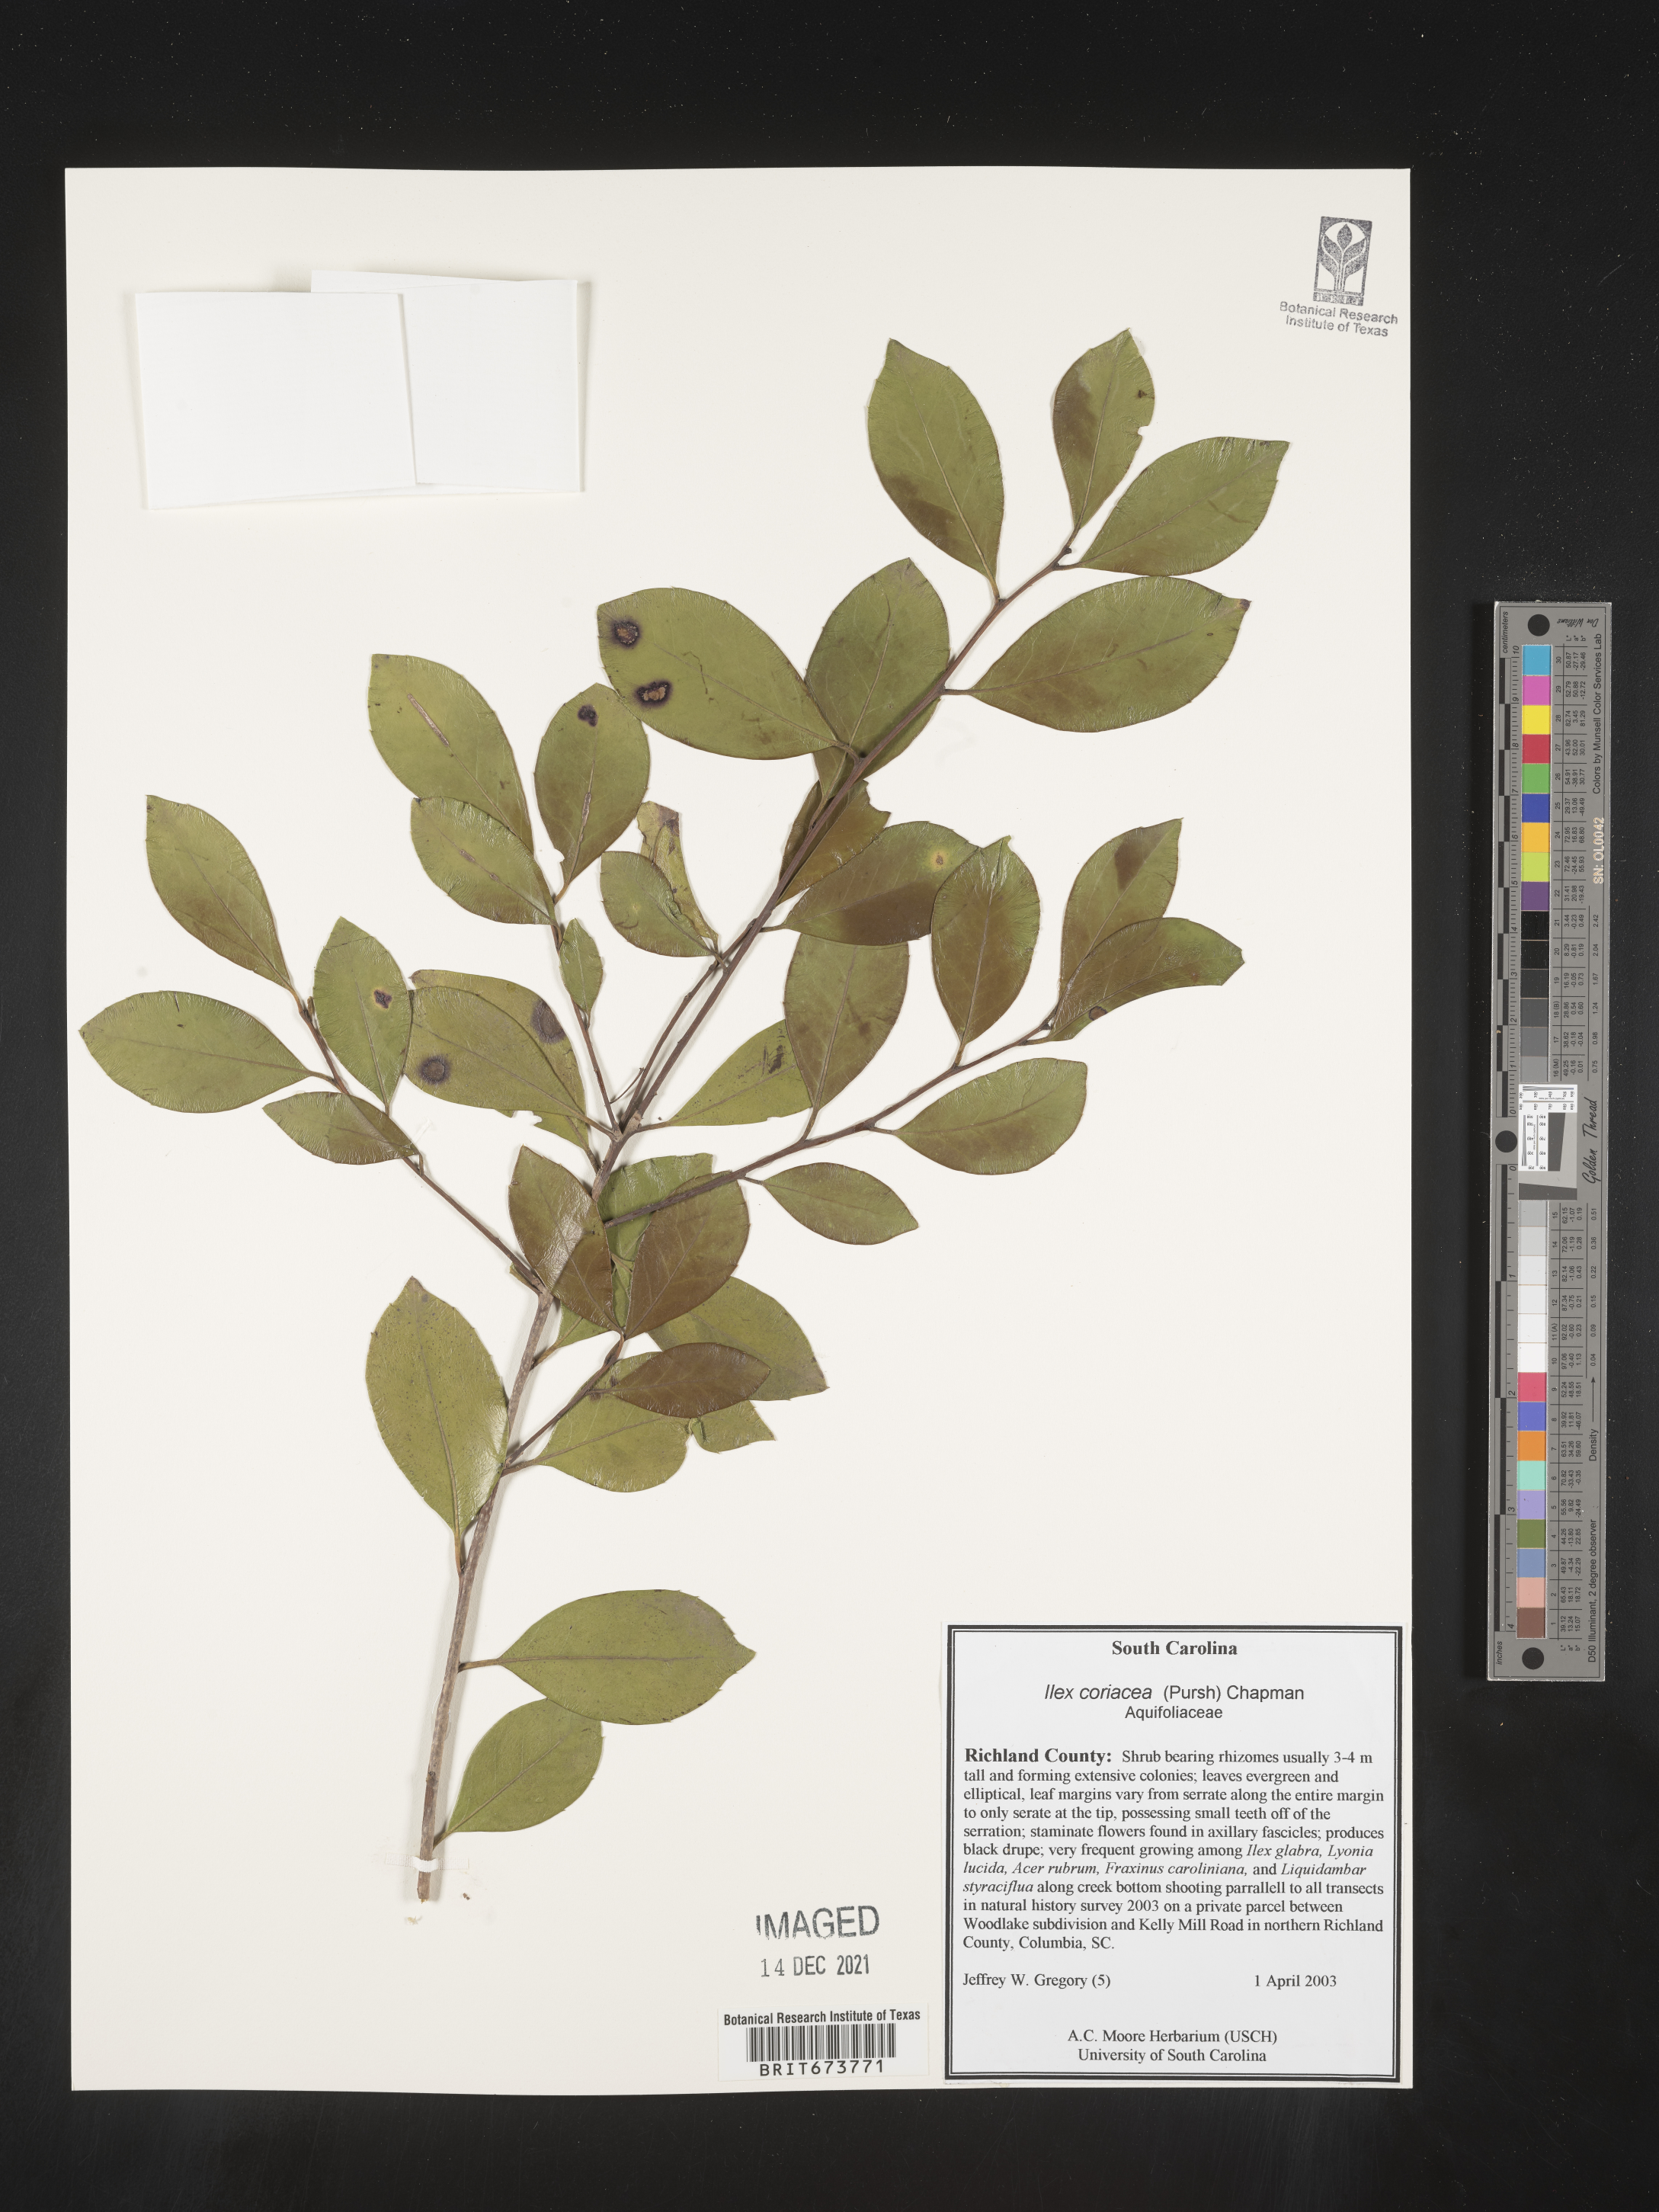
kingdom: Plantae
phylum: Tracheophyta
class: Magnoliopsida
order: Aquifoliales
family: Aquifoliaceae
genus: Ilex
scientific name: Ilex coriacea
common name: Sweet gallberry
